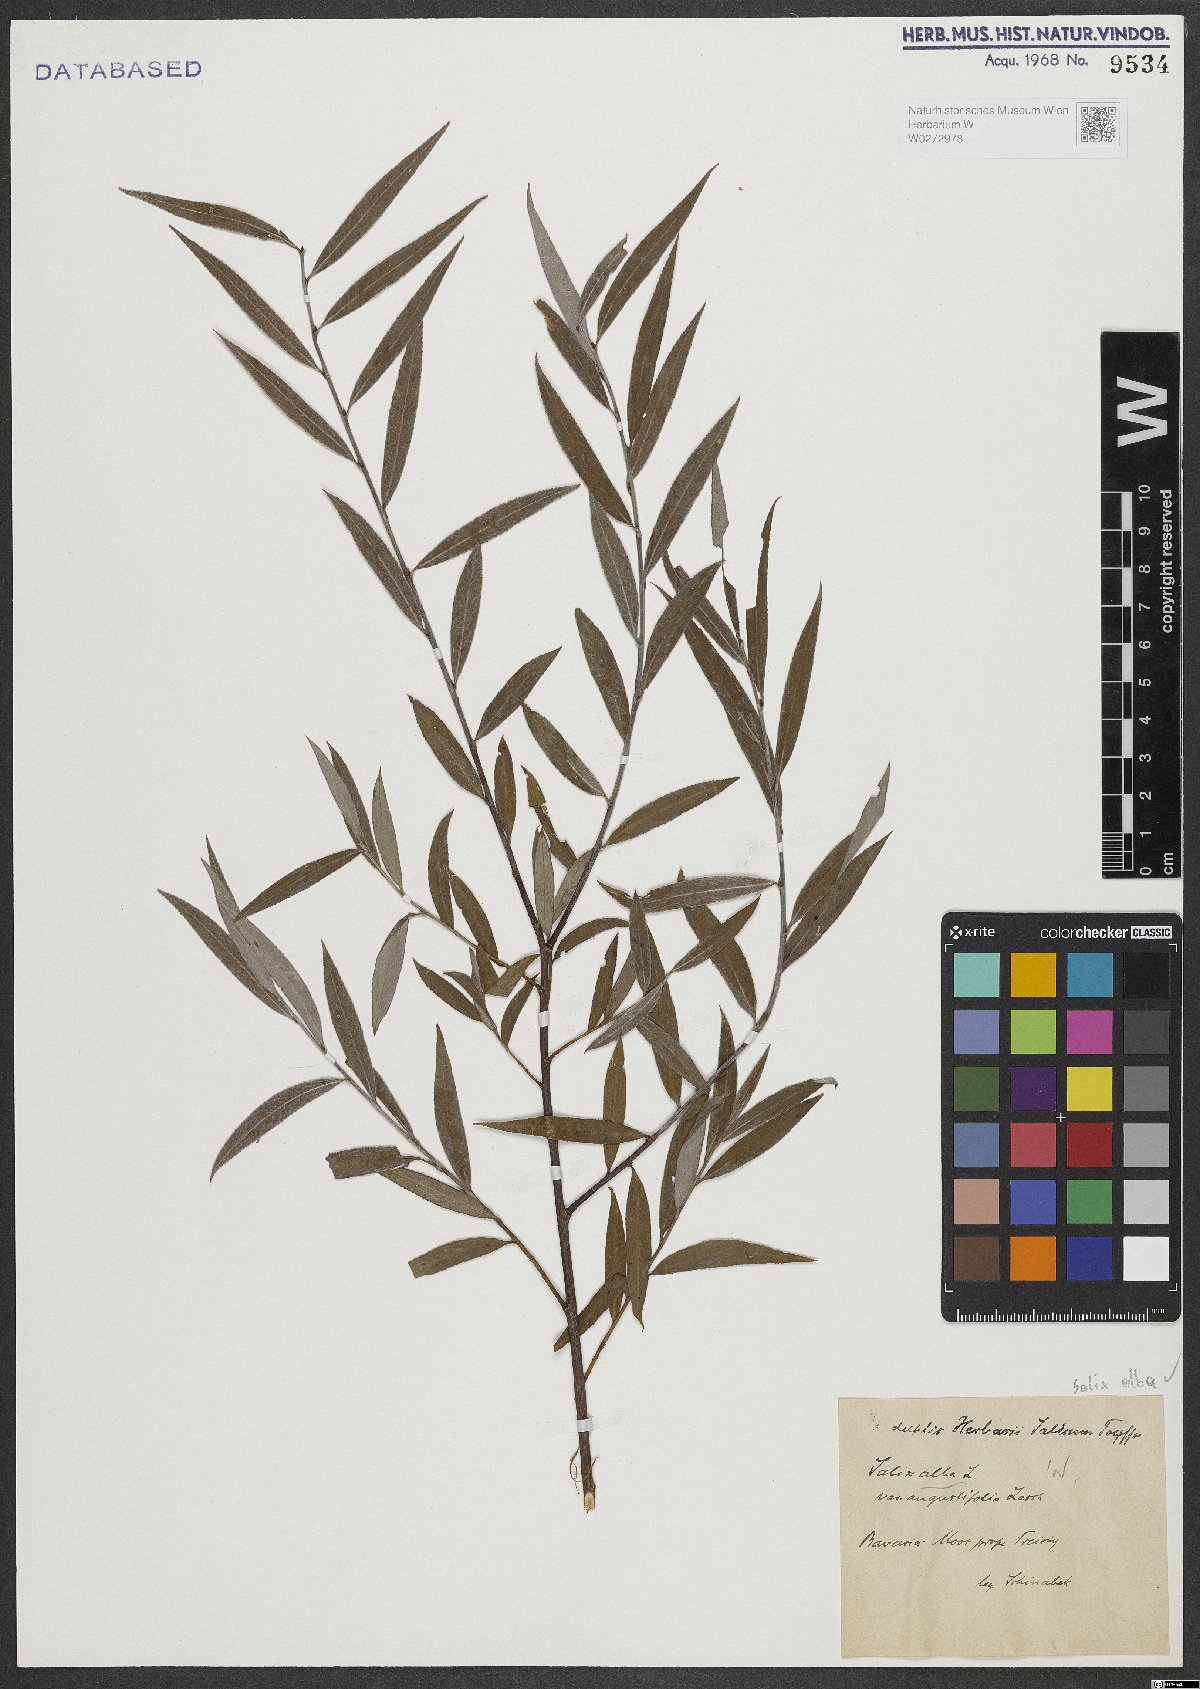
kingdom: Plantae
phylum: Tracheophyta
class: Magnoliopsida
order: Malpighiales
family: Salicaceae
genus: Salix
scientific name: Salix alba
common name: White willow
